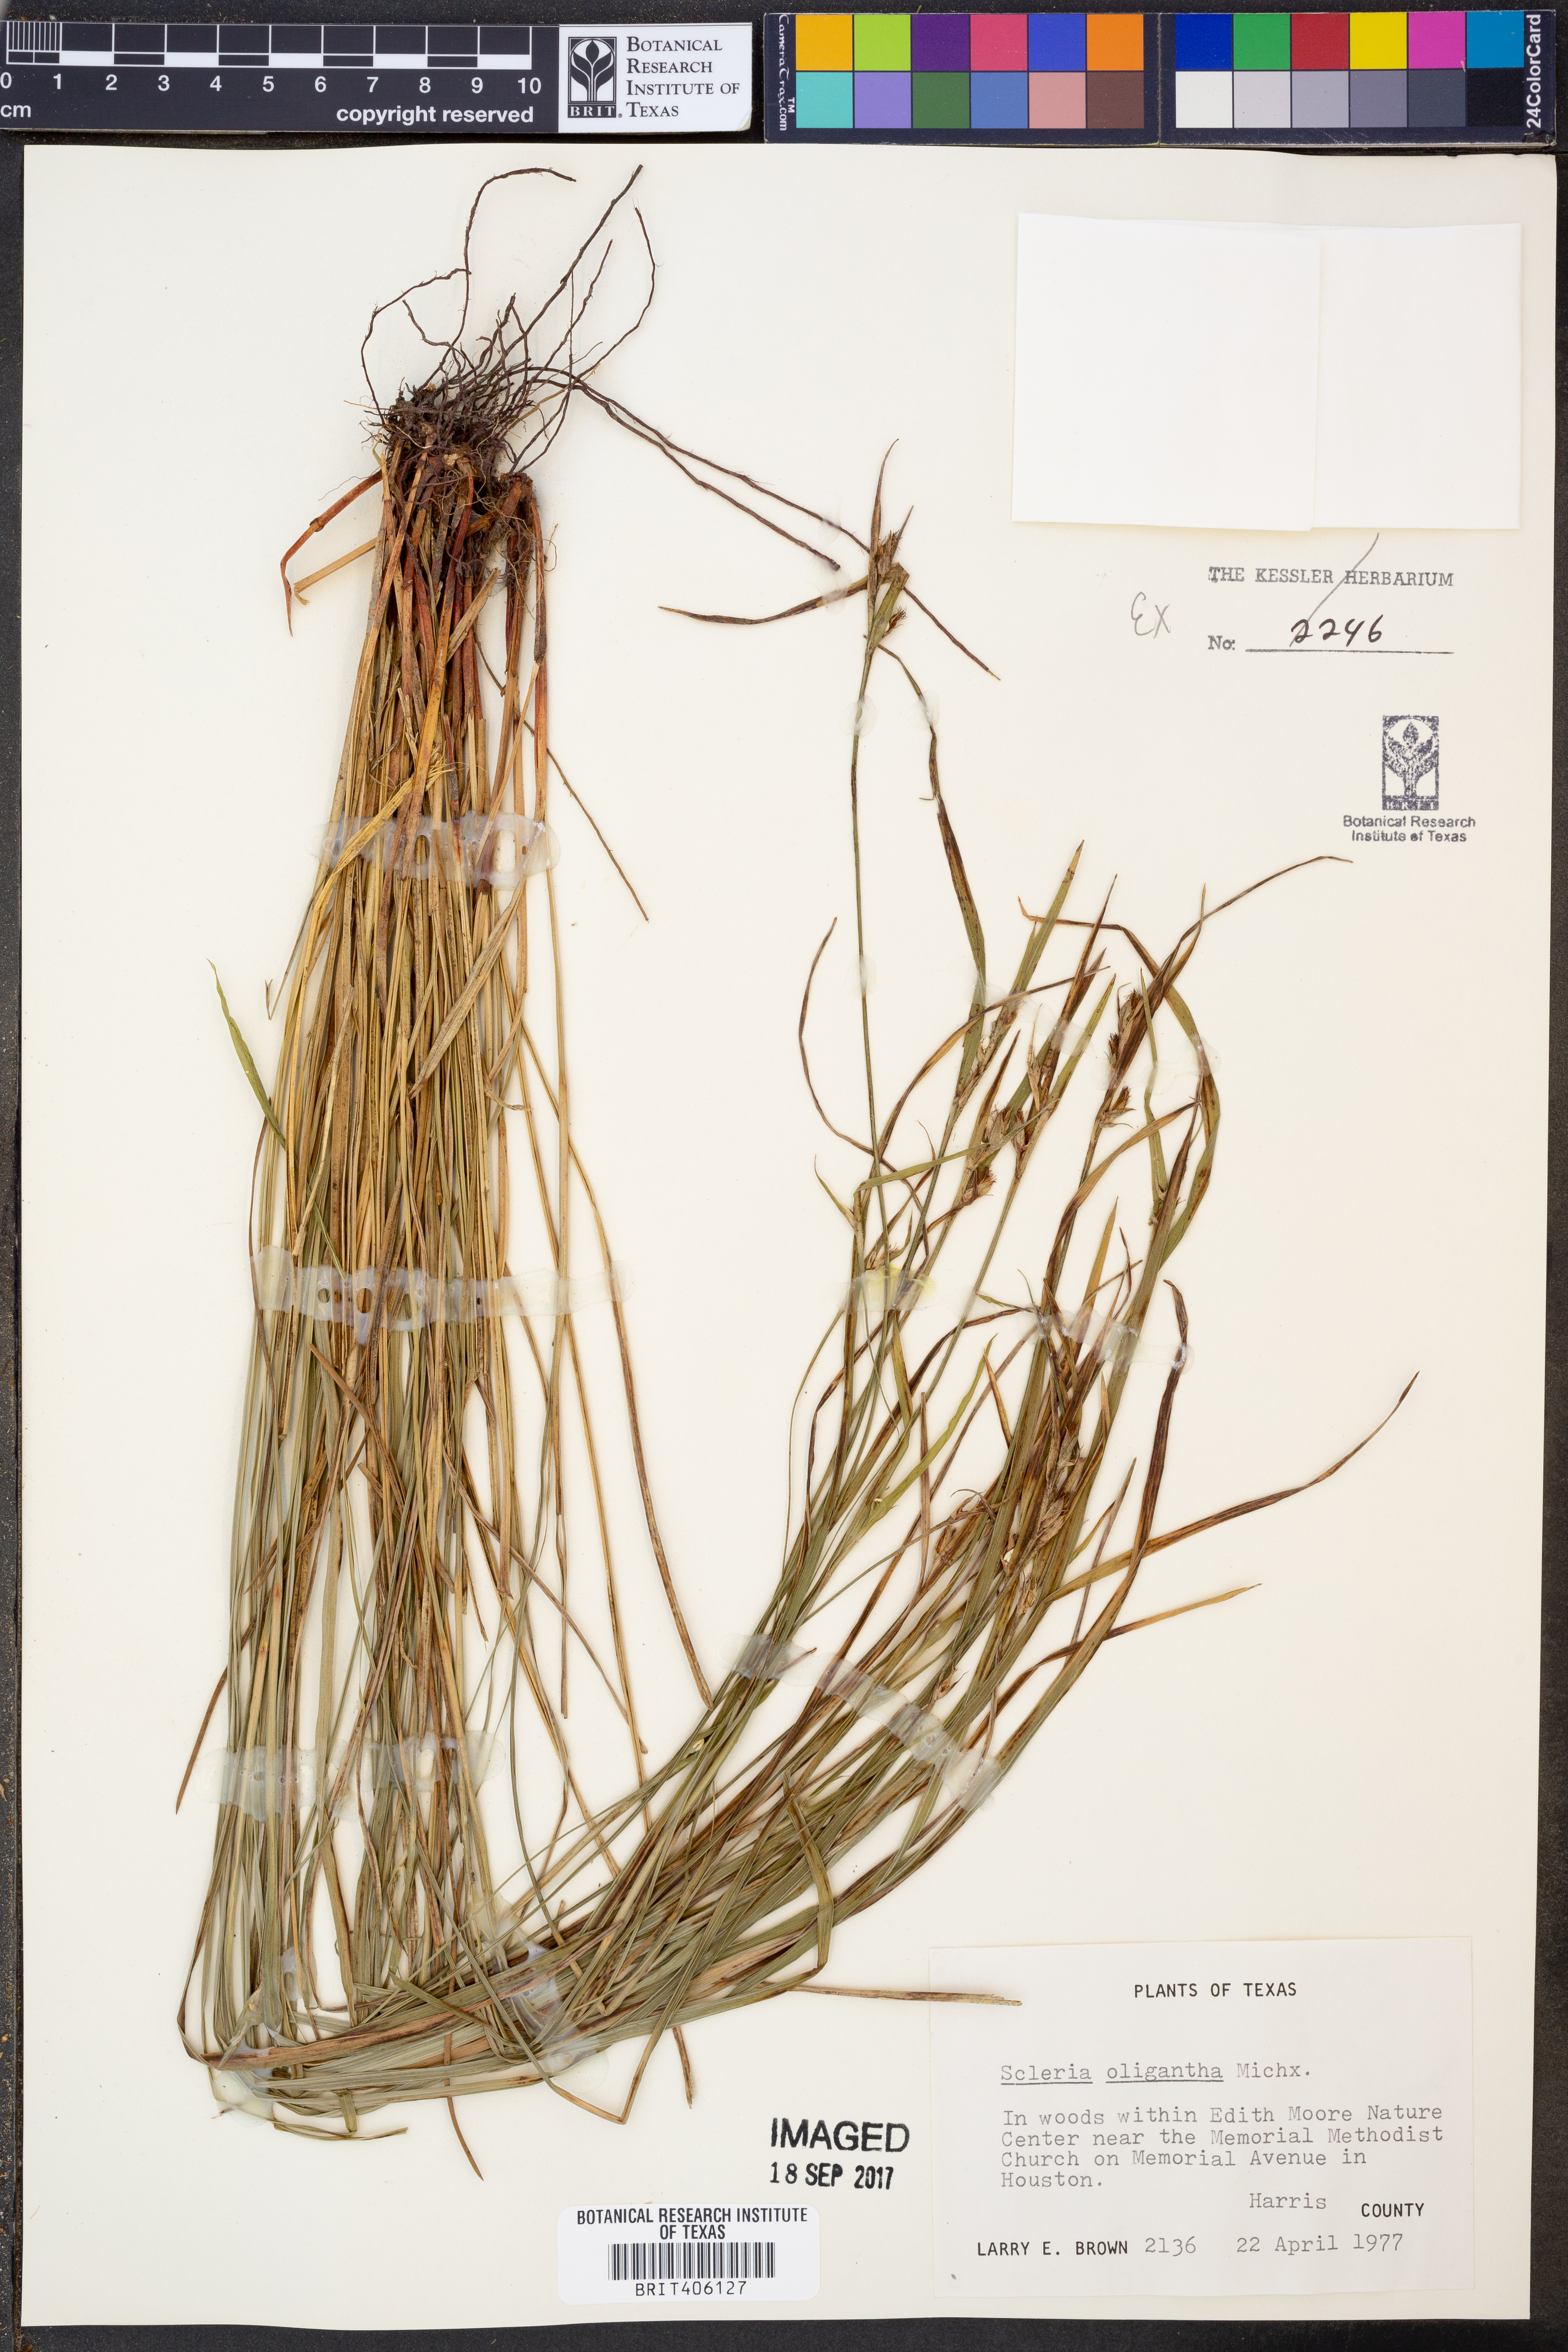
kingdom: Plantae
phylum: Tracheophyta
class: Liliopsida
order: Poales
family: Cyperaceae
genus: Scleria
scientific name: Scleria oligantha
